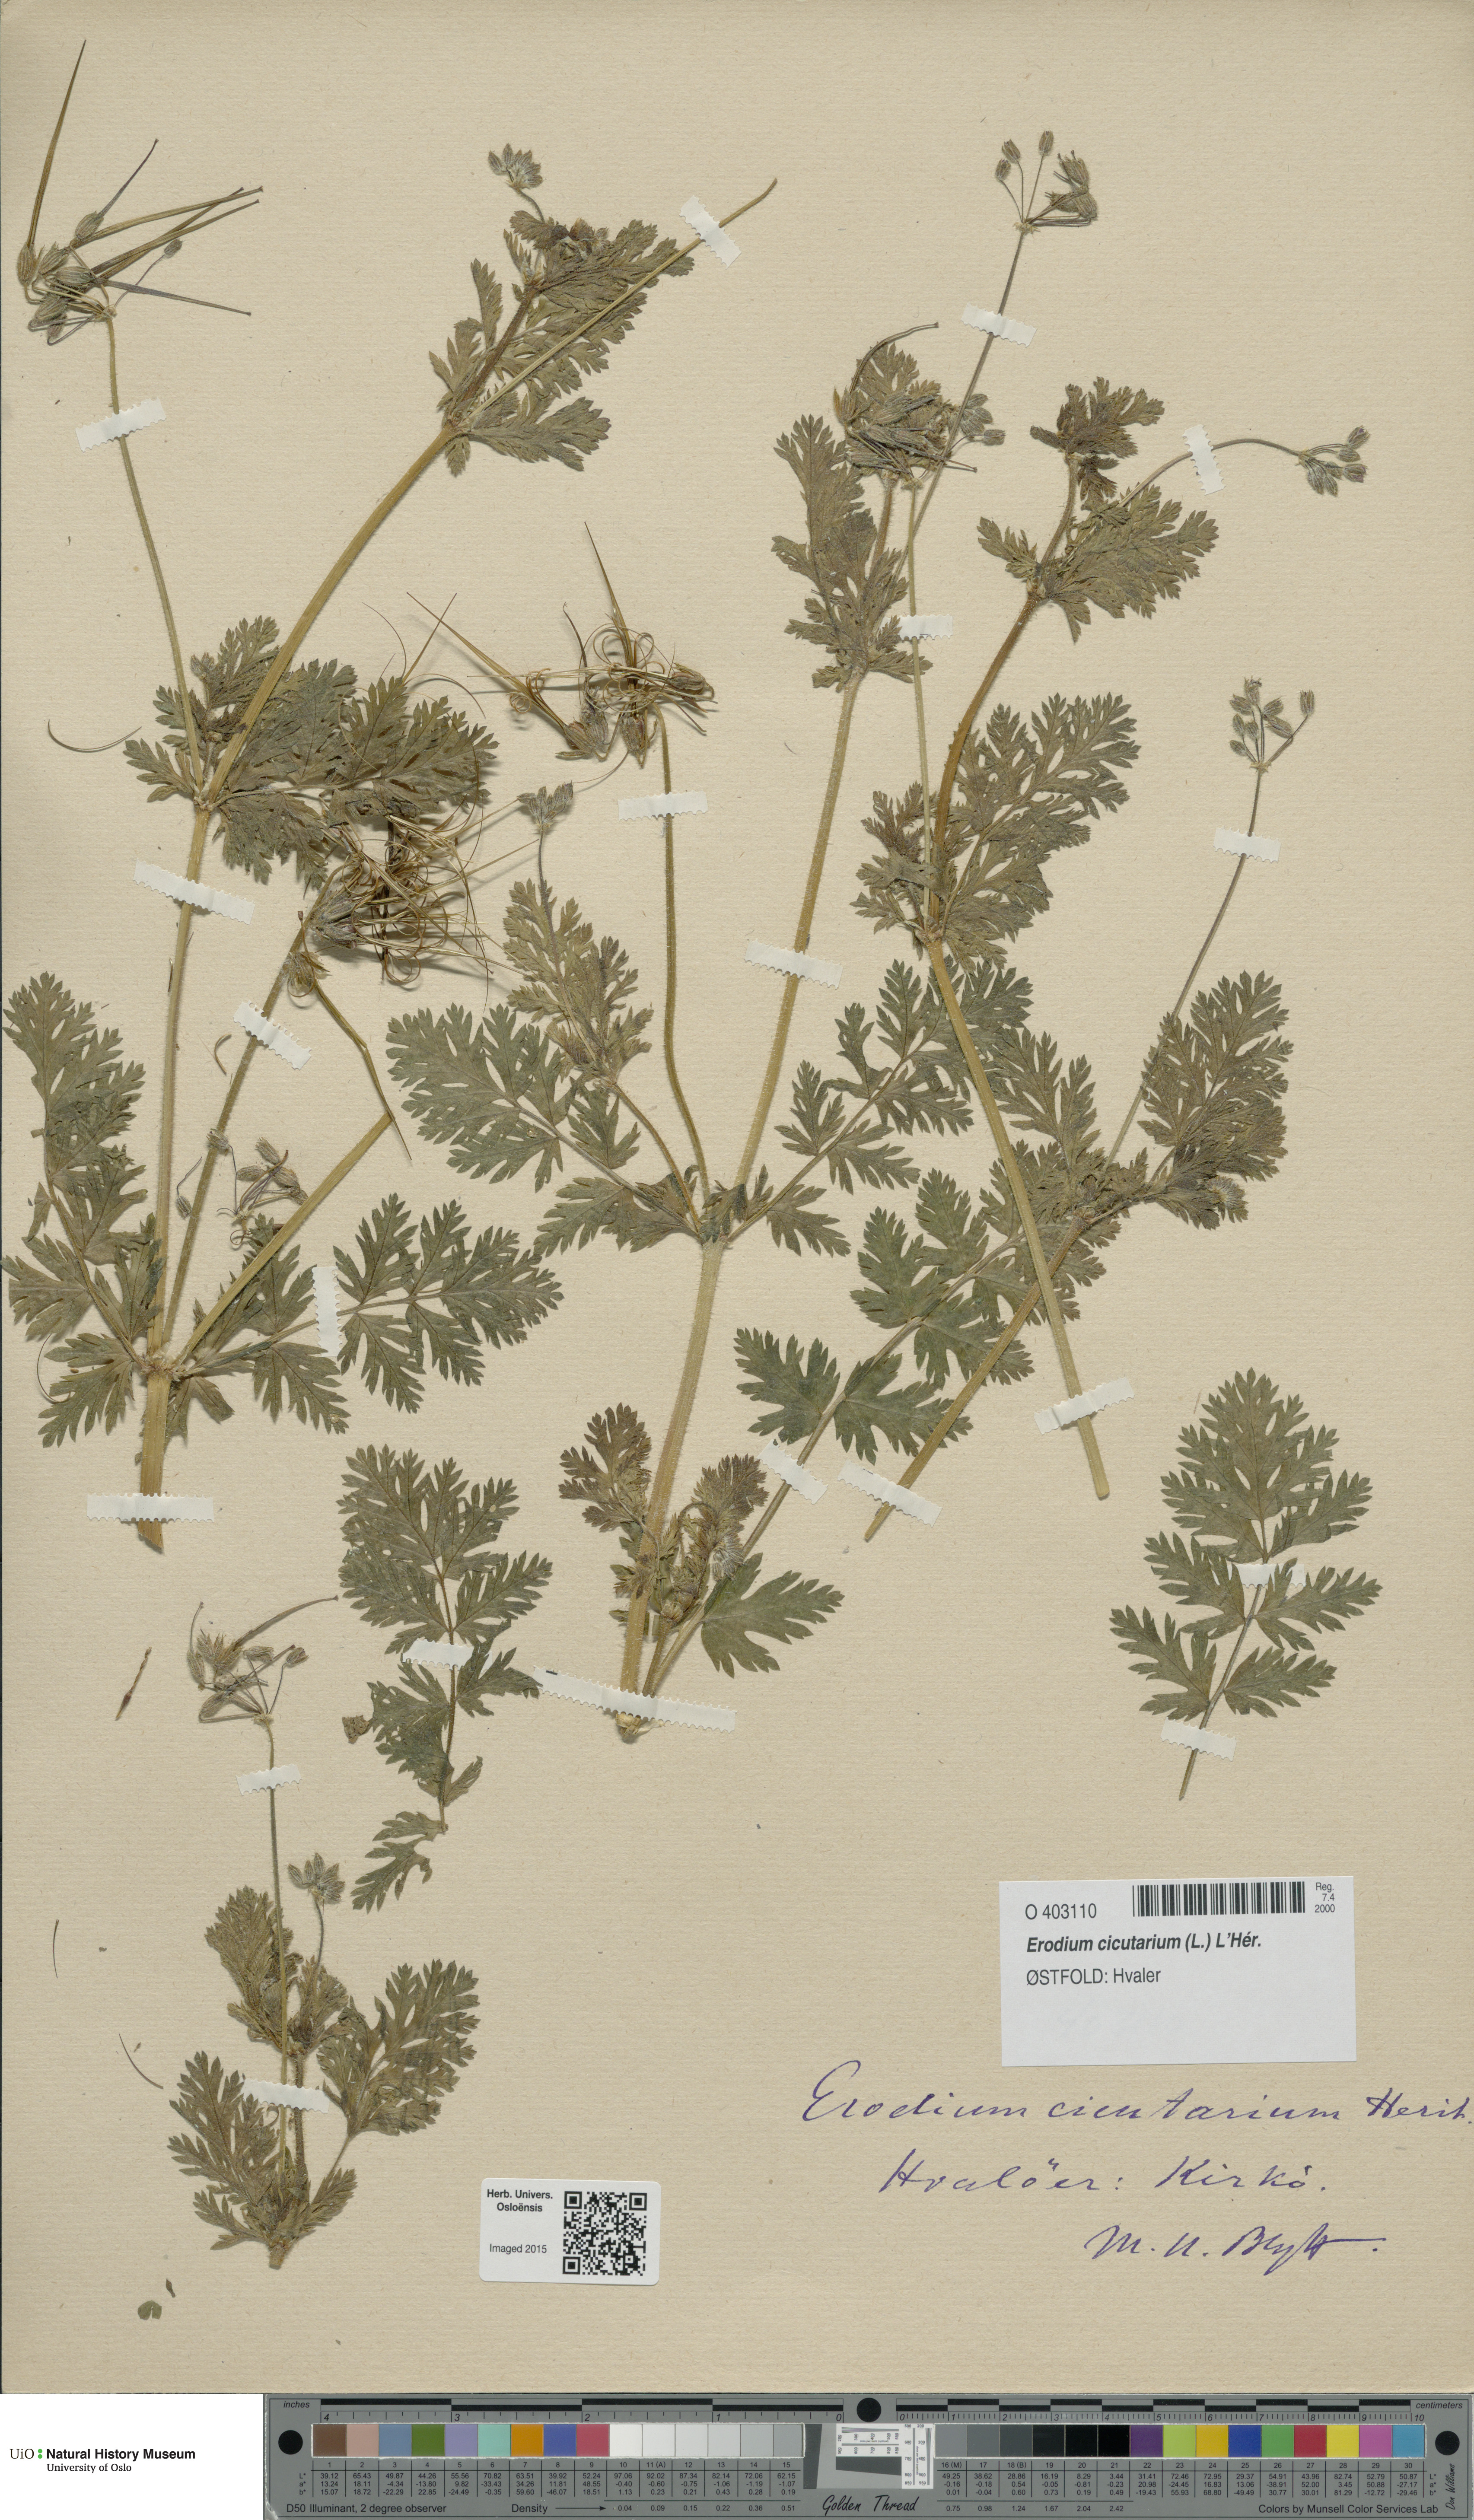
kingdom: Plantae
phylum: Tracheophyta
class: Magnoliopsida
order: Geraniales
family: Geraniaceae
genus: Erodium
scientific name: Erodium cicutarium
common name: Common stork's-bill
